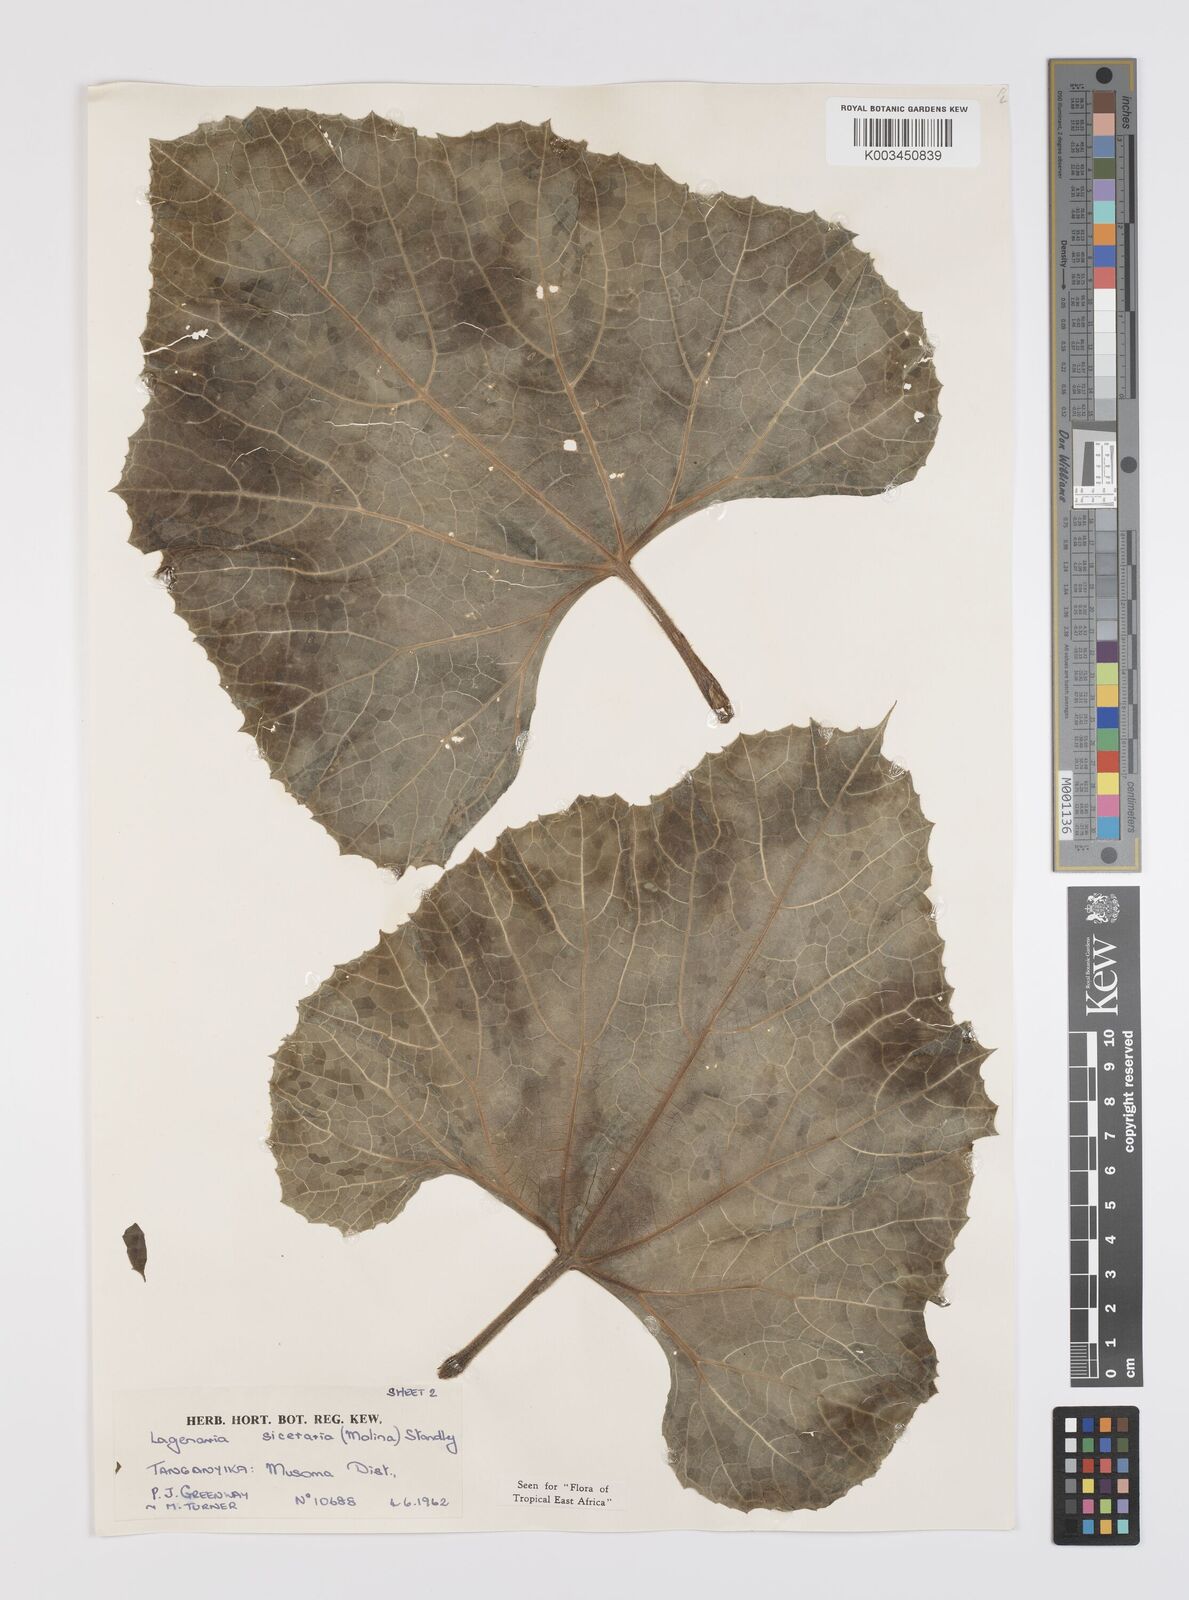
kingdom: Plantae
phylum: Tracheophyta
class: Magnoliopsida
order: Cucurbitales
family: Cucurbitaceae
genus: Lagenaria
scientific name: Lagenaria siceraria
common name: Bottle gourd
